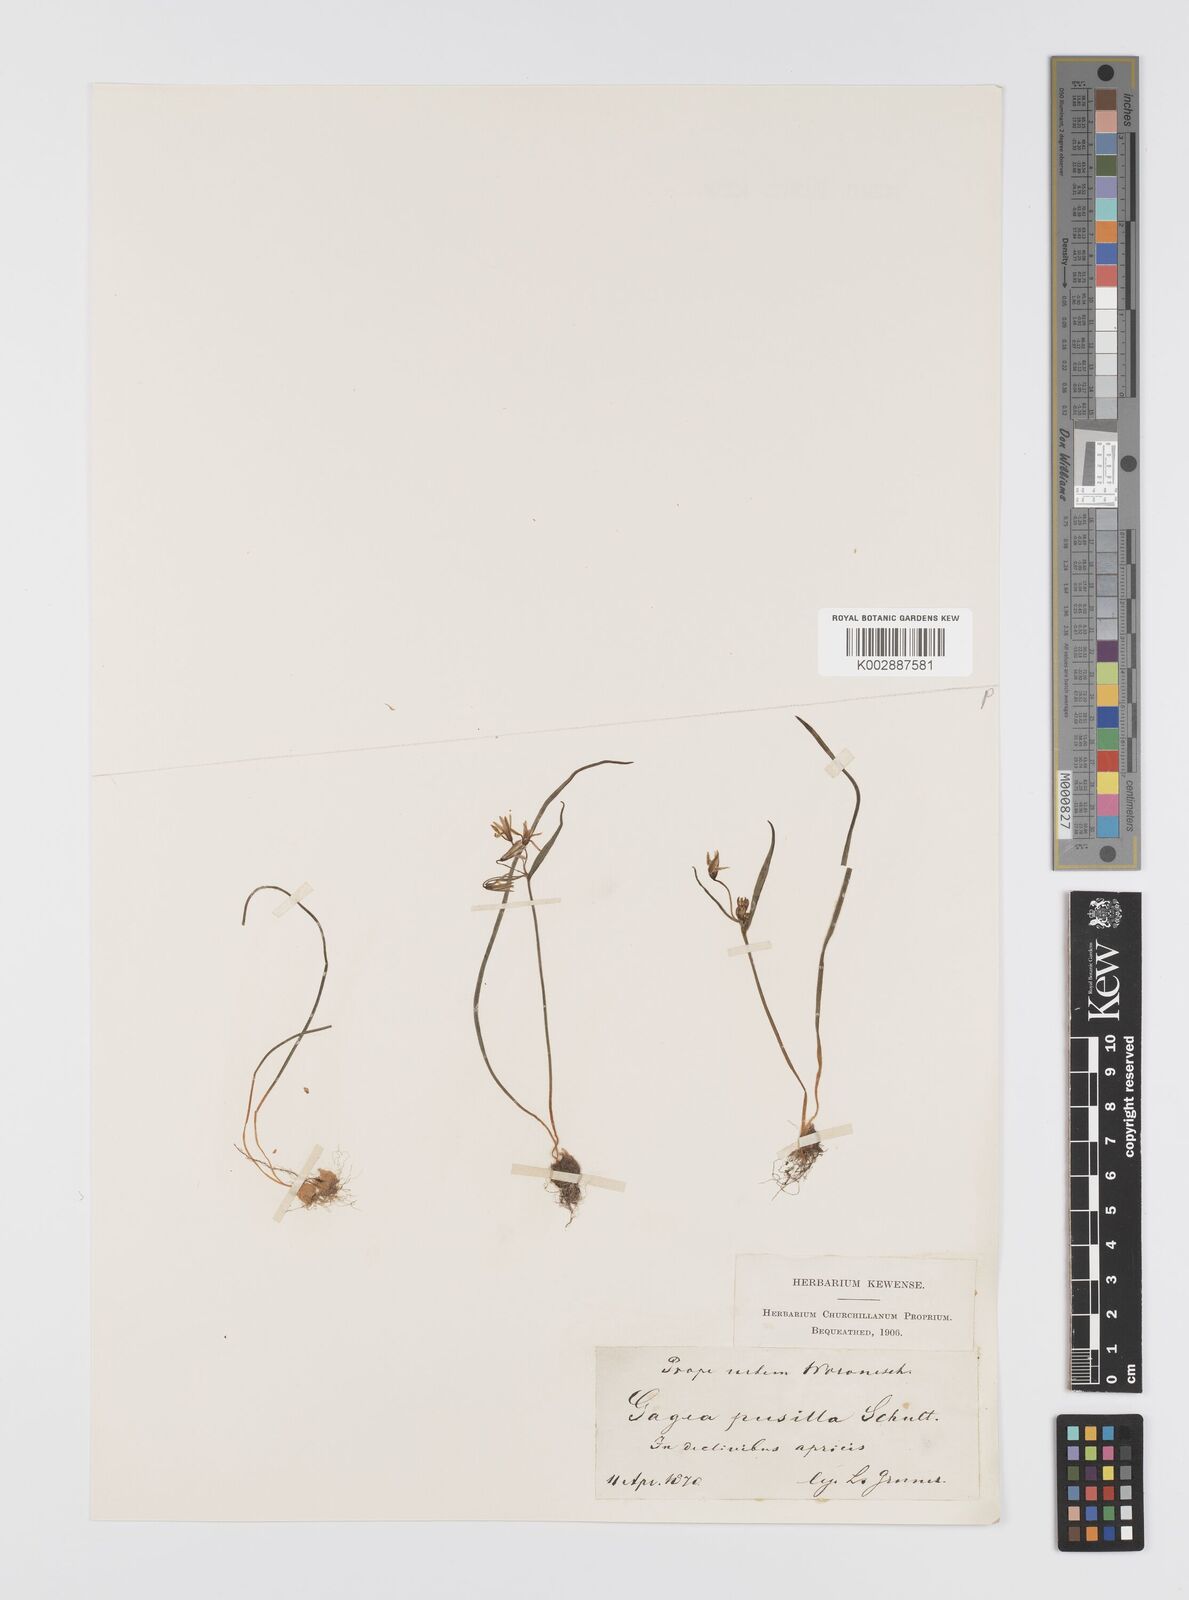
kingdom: Plantae
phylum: Tracheophyta
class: Liliopsida
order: Liliales
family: Liliaceae
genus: Gagea
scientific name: Gagea pusilla
